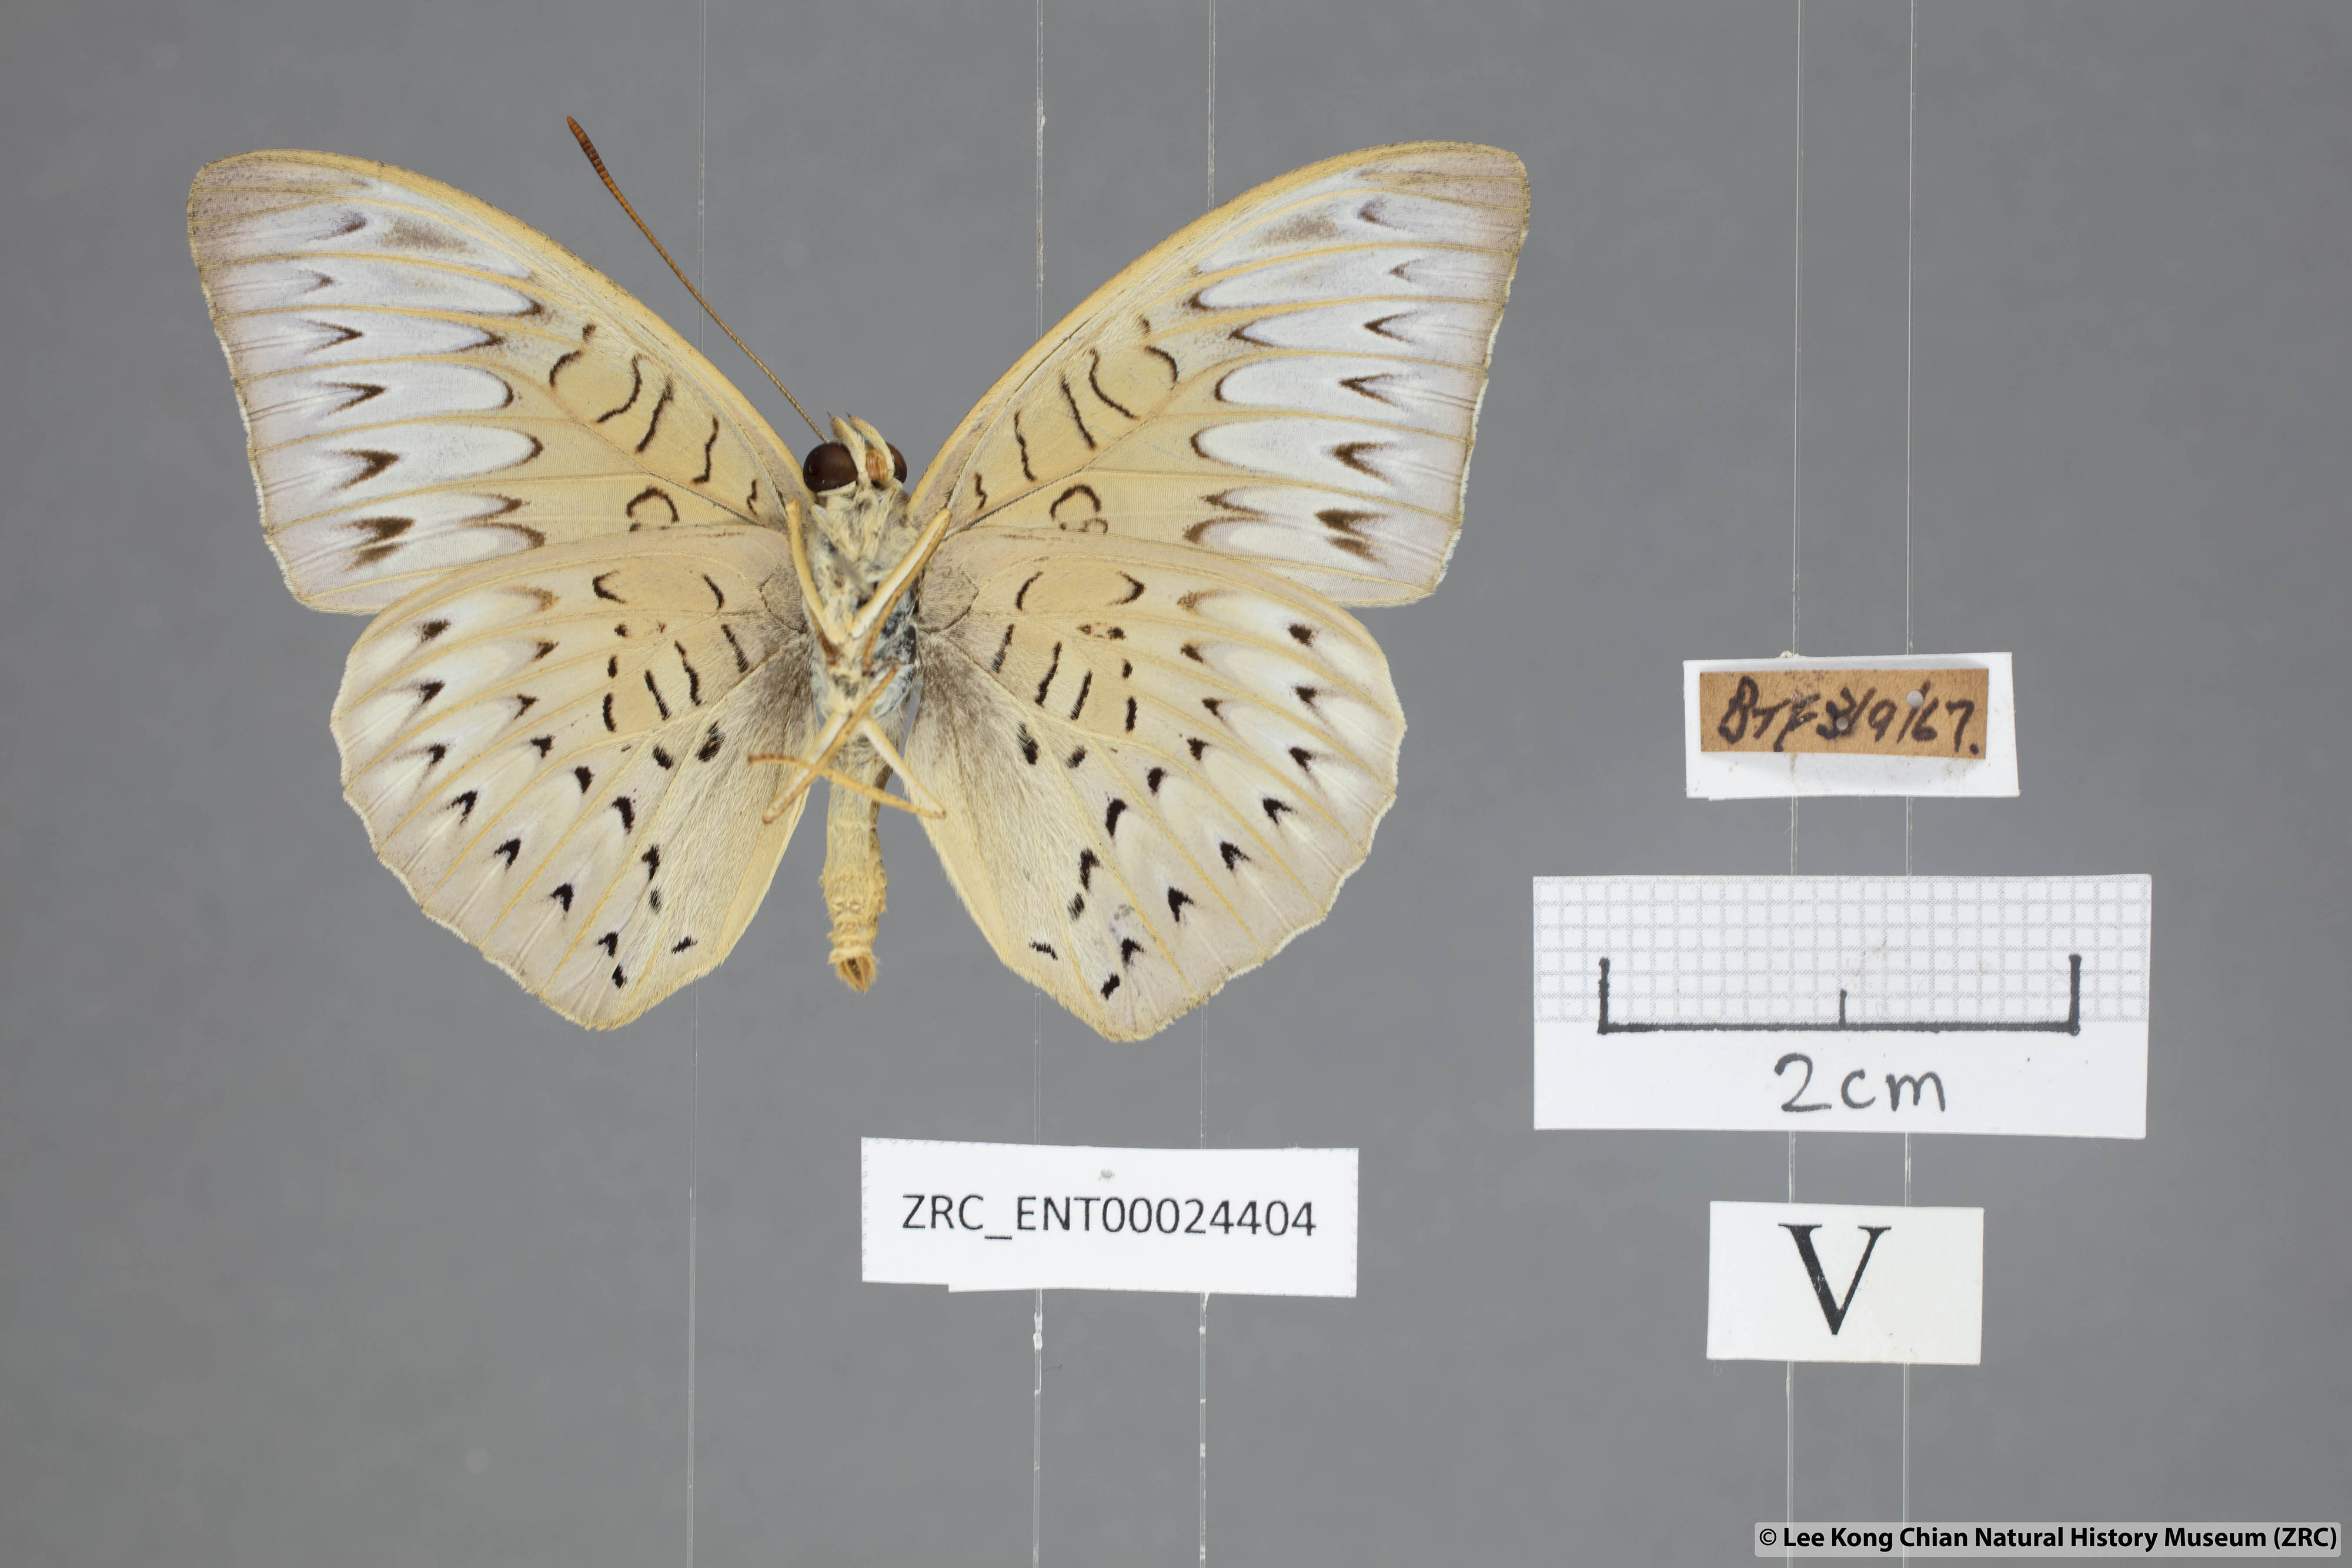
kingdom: Animalia
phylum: Arthropoda
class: Insecta
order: Lepidoptera
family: Nymphalidae
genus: Tanaecia
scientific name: Tanaecia pelea
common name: Malay viscount
